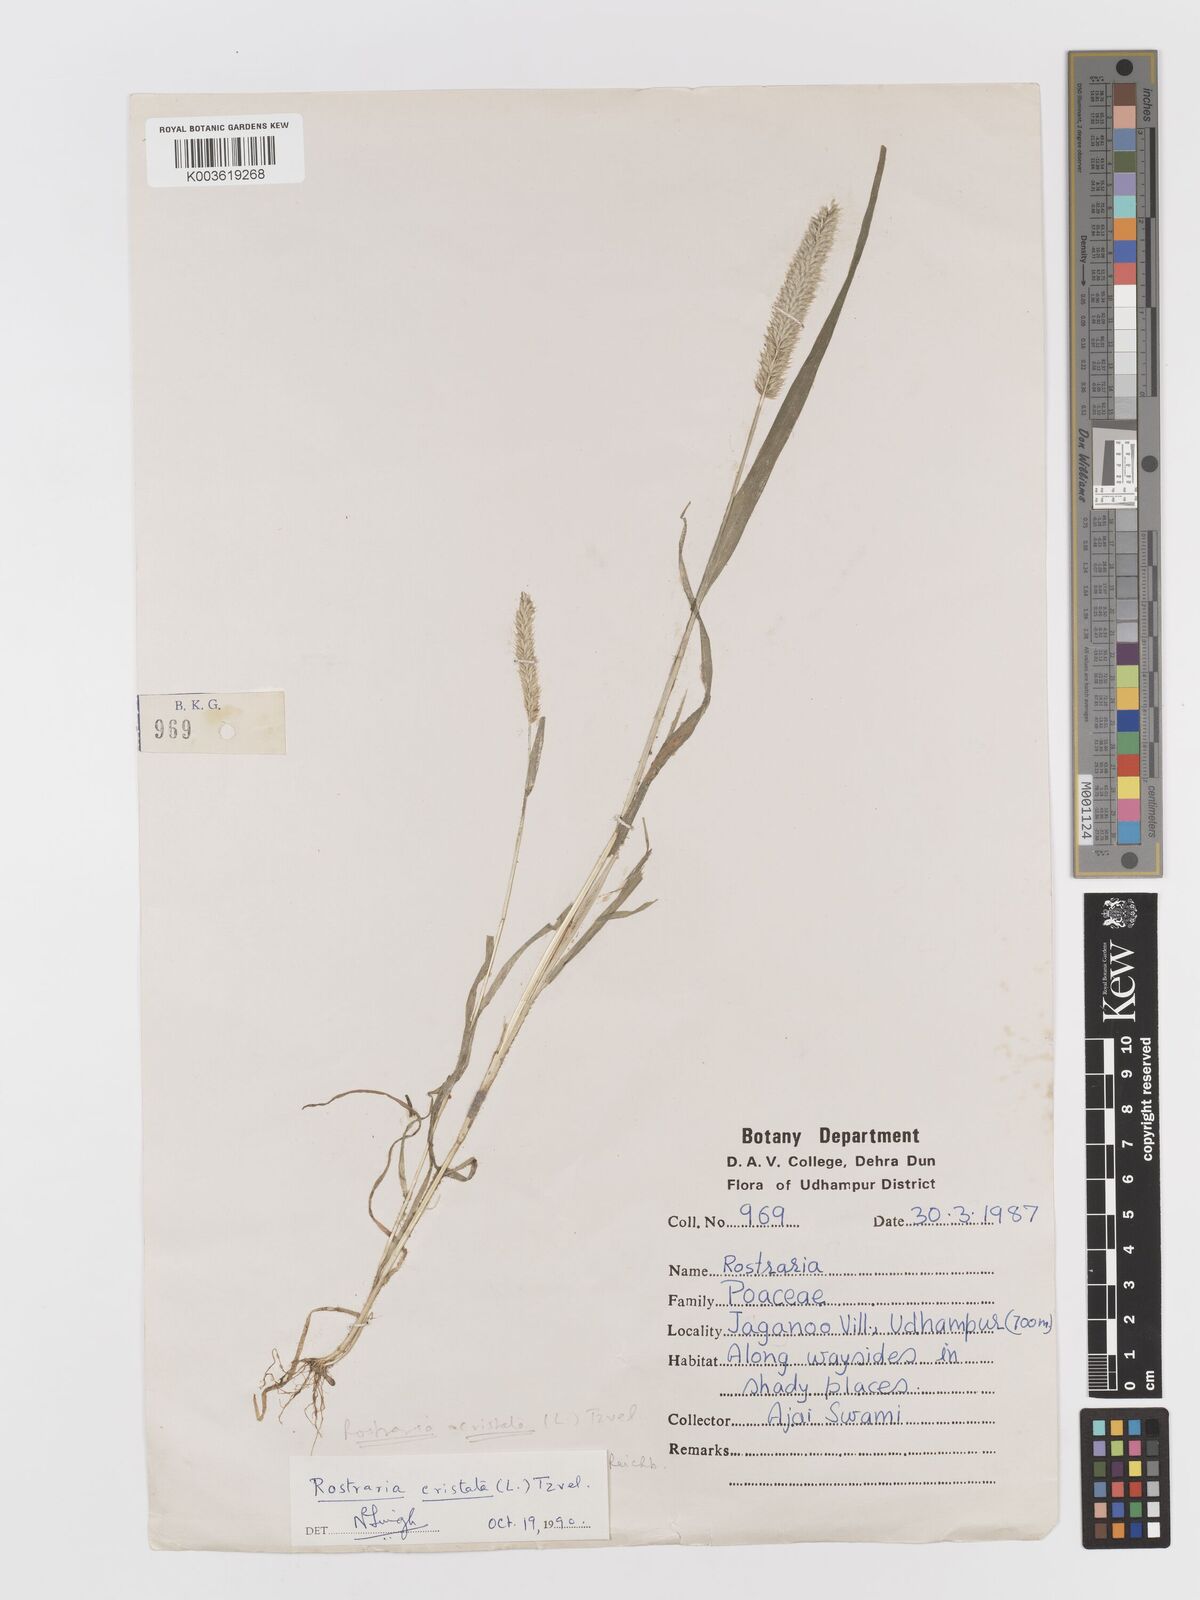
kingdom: Plantae
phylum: Tracheophyta
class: Liliopsida
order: Poales
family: Poaceae
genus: Rostraria
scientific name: Rostraria cristata
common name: Mediterranean hair-grass
